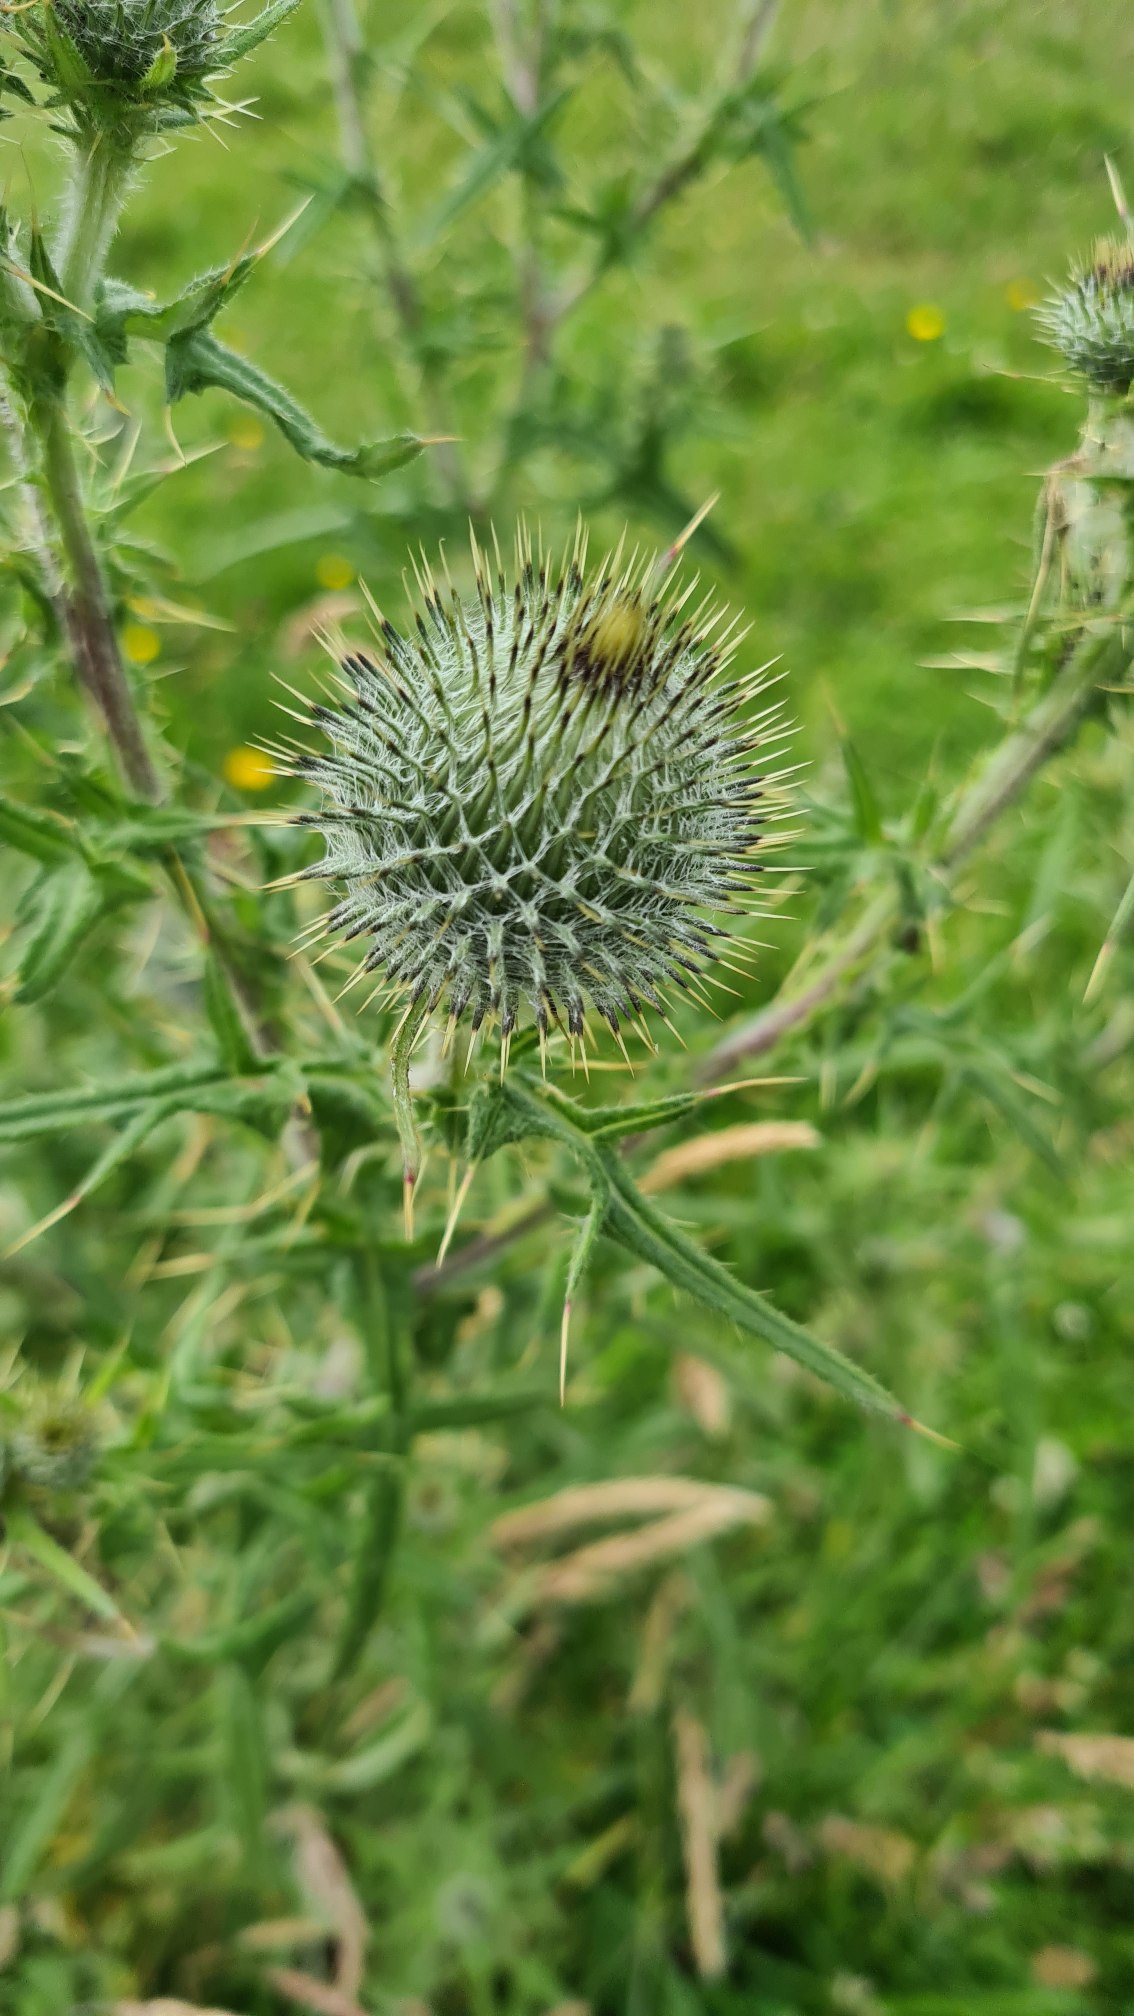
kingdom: Plantae
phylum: Tracheophyta
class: Magnoliopsida
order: Asterales
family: Asteraceae
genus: Cirsium
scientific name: Cirsium vulgare
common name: Horse-tidsel
